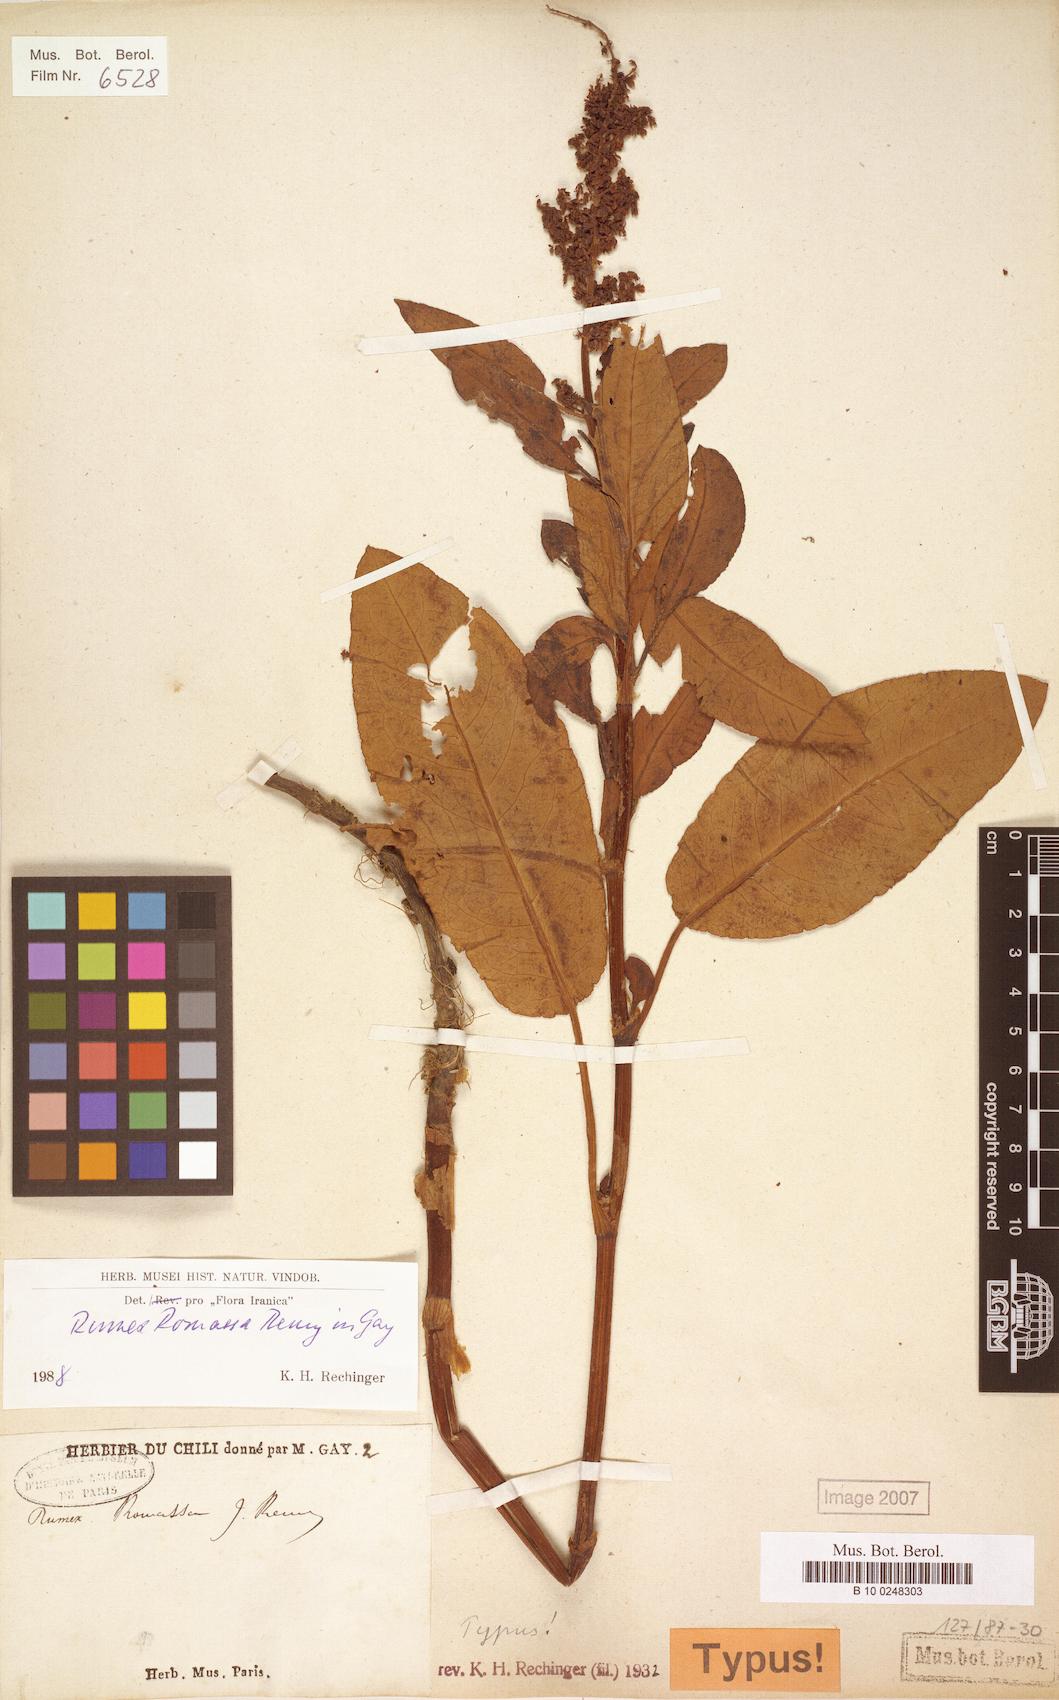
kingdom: Plantae
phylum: Tracheophyta
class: Magnoliopsida
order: Caryophyllales
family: Polygonaceae
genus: Rumex
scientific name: Rumex romassa
